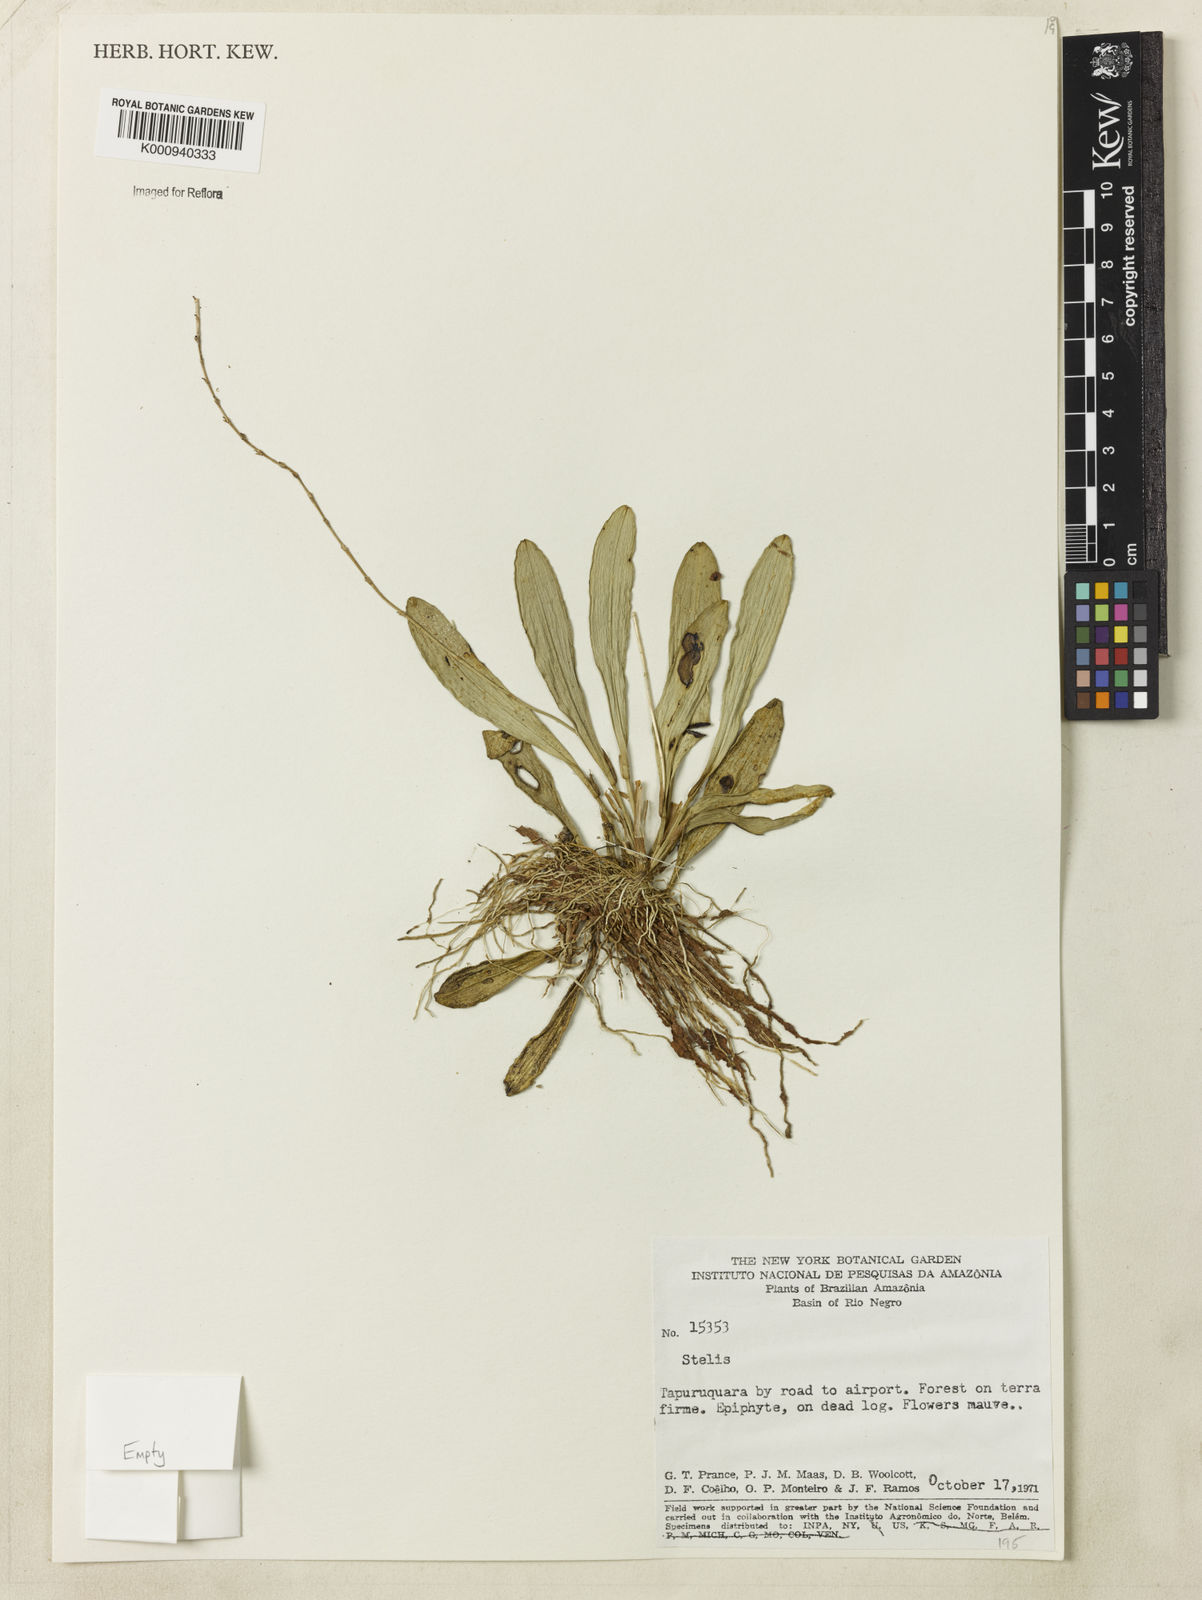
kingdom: Plantae
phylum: Tracheophyta
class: Liliopsida
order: Asparagales
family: Orchidaceae
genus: Stelis
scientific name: Stelis
